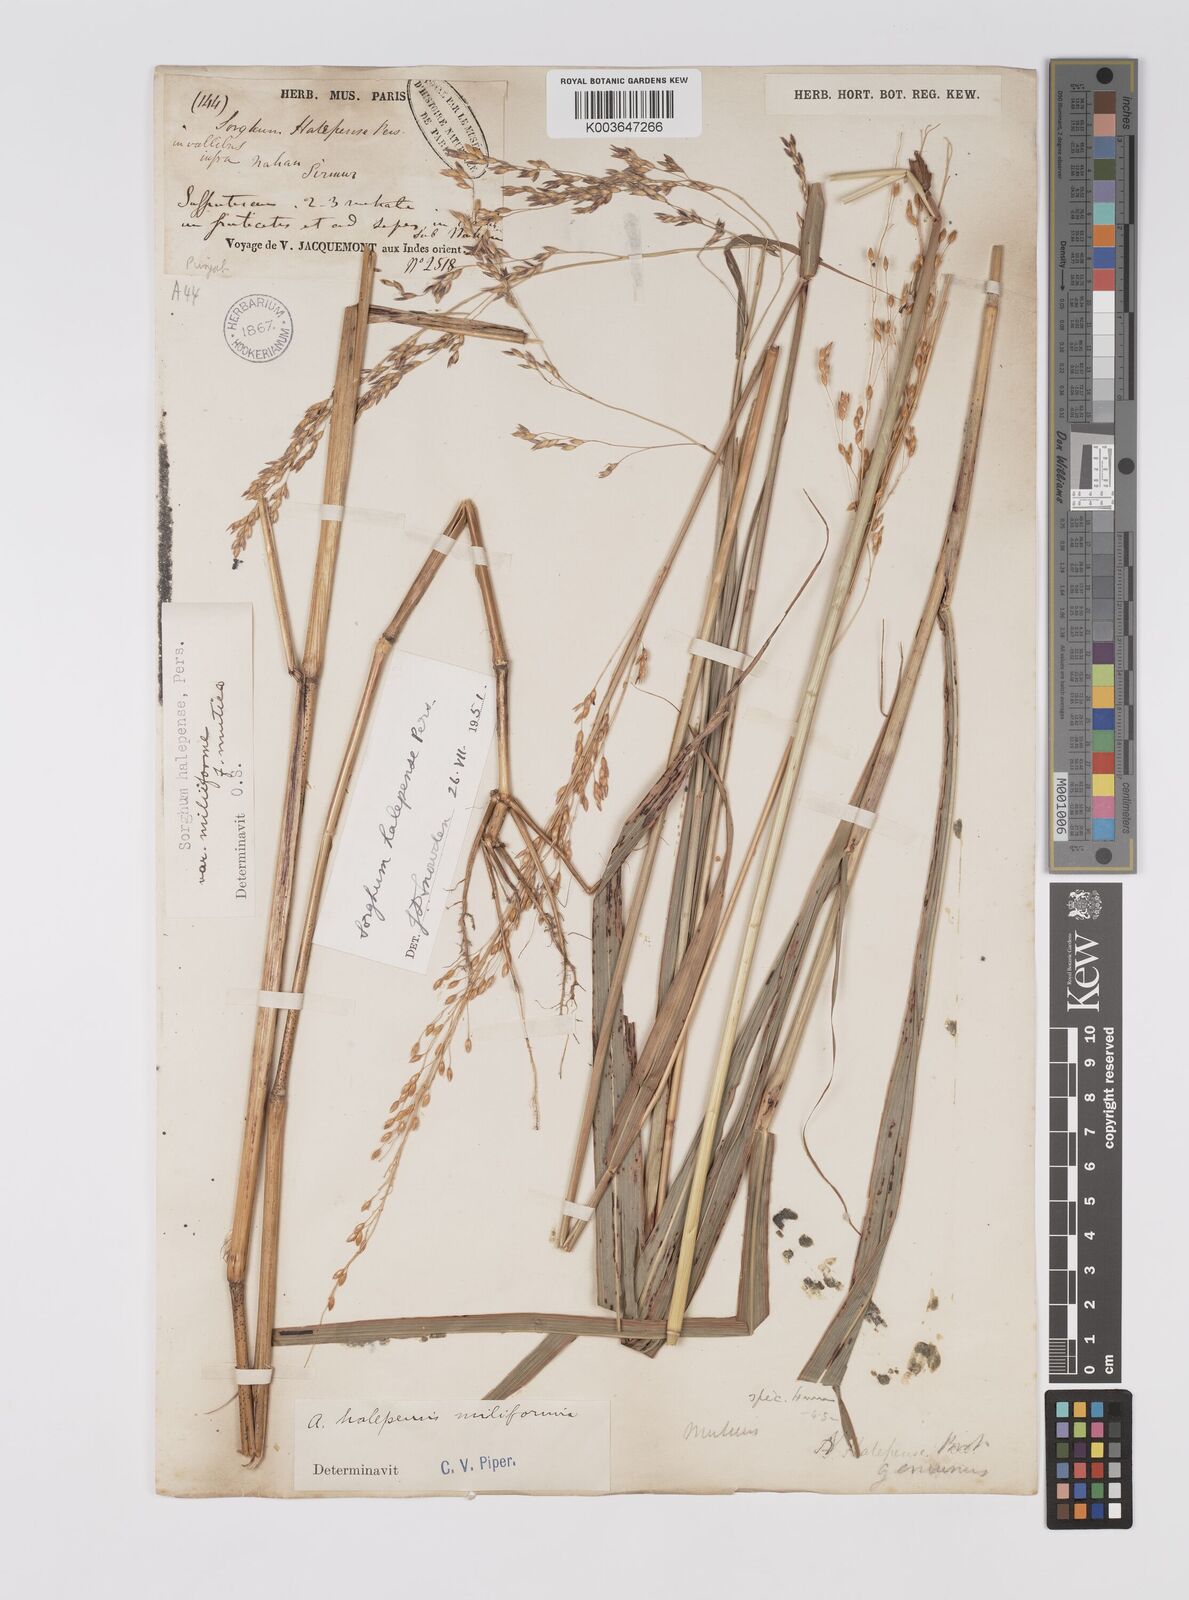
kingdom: Plantae
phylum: Tracheophyta
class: Liliopsida
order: Poales
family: Poaceae
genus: Sorghum
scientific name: Sorghum halepense
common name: Johnson-grass
